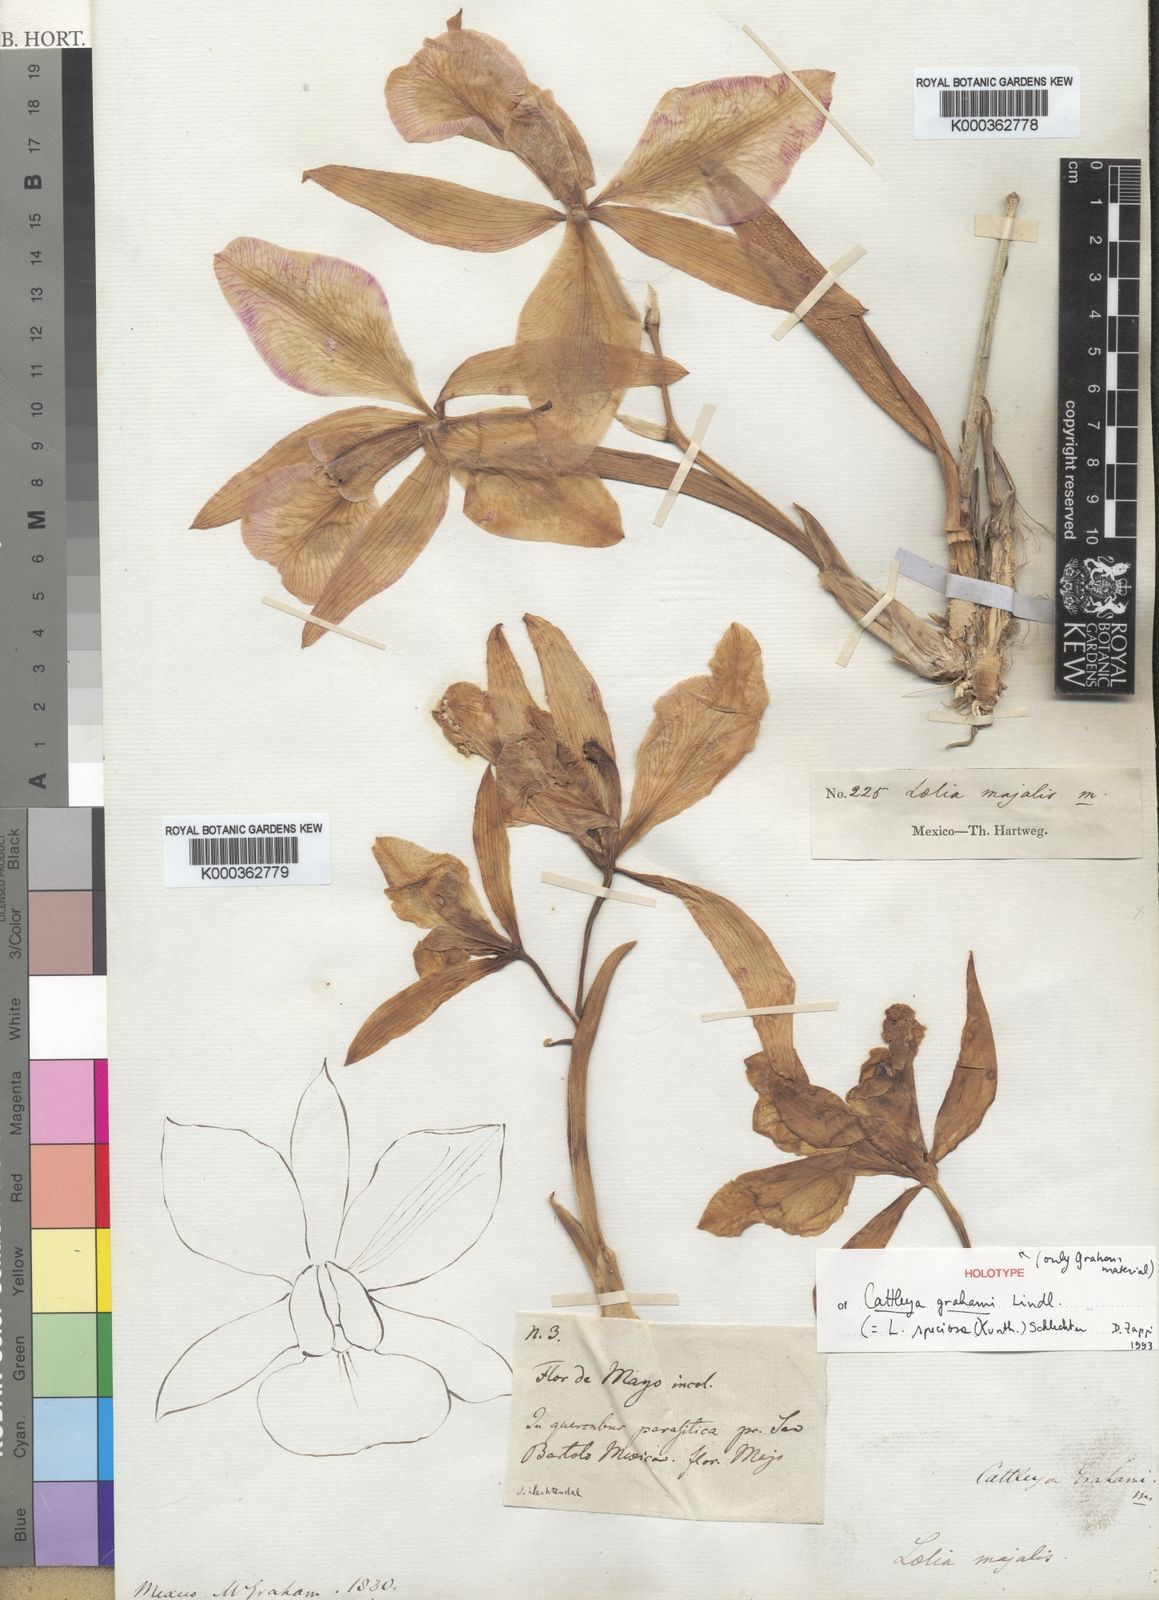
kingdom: Plantae
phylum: Tracheophyta
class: Liliopsida
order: Asparagales
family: Orchidaceae
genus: Laelia
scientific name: Laelia speciosa
